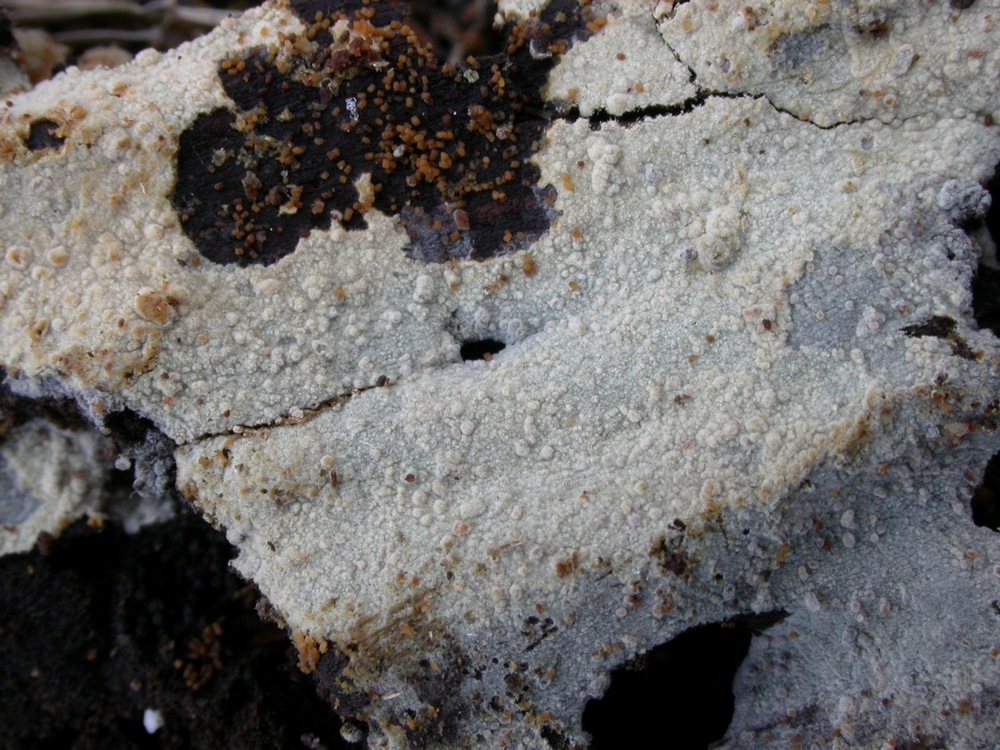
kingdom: Fungi
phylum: Basidiomycota
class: Agaricomycetes
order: Hymenochaetales
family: Hyphodontiaceae
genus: Hyphodontia
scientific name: Hyphodontia pallidula
